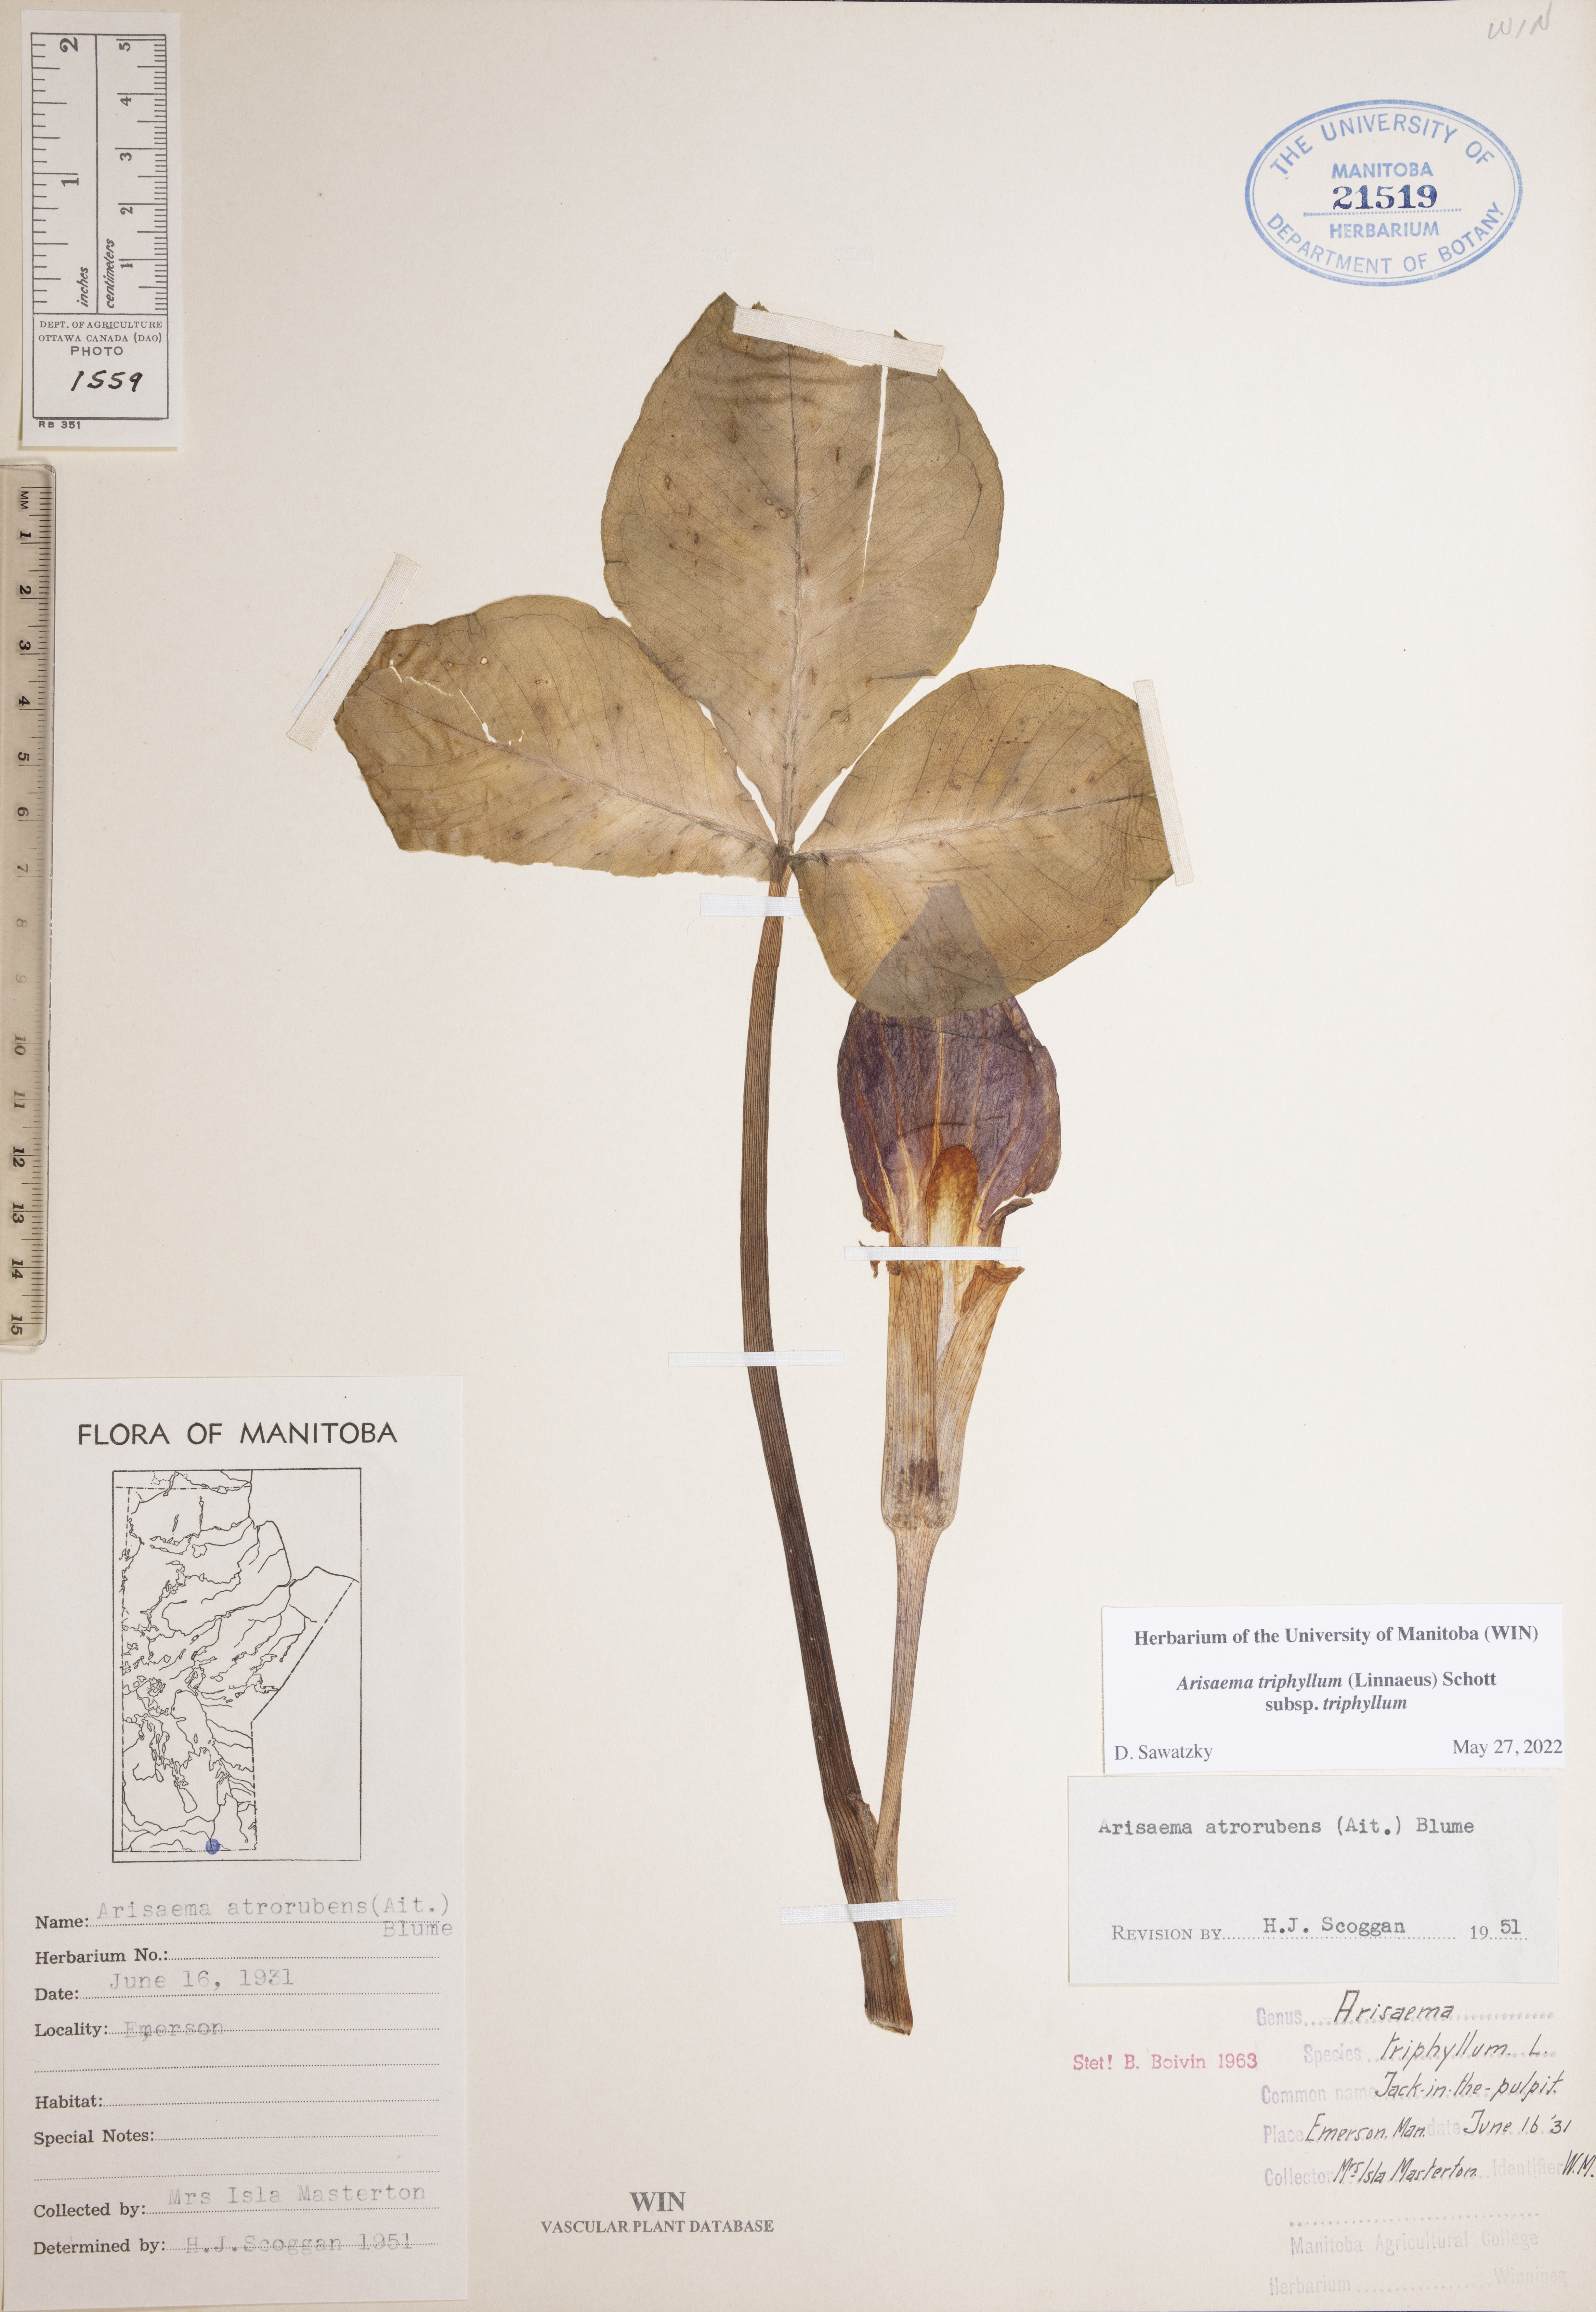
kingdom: Plantae
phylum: Tracheophyta
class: Liliopsida
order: Alismatales
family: Araceae
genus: Arisaema
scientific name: Arisaema triphyllum
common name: Jack-in-the-pulpit
